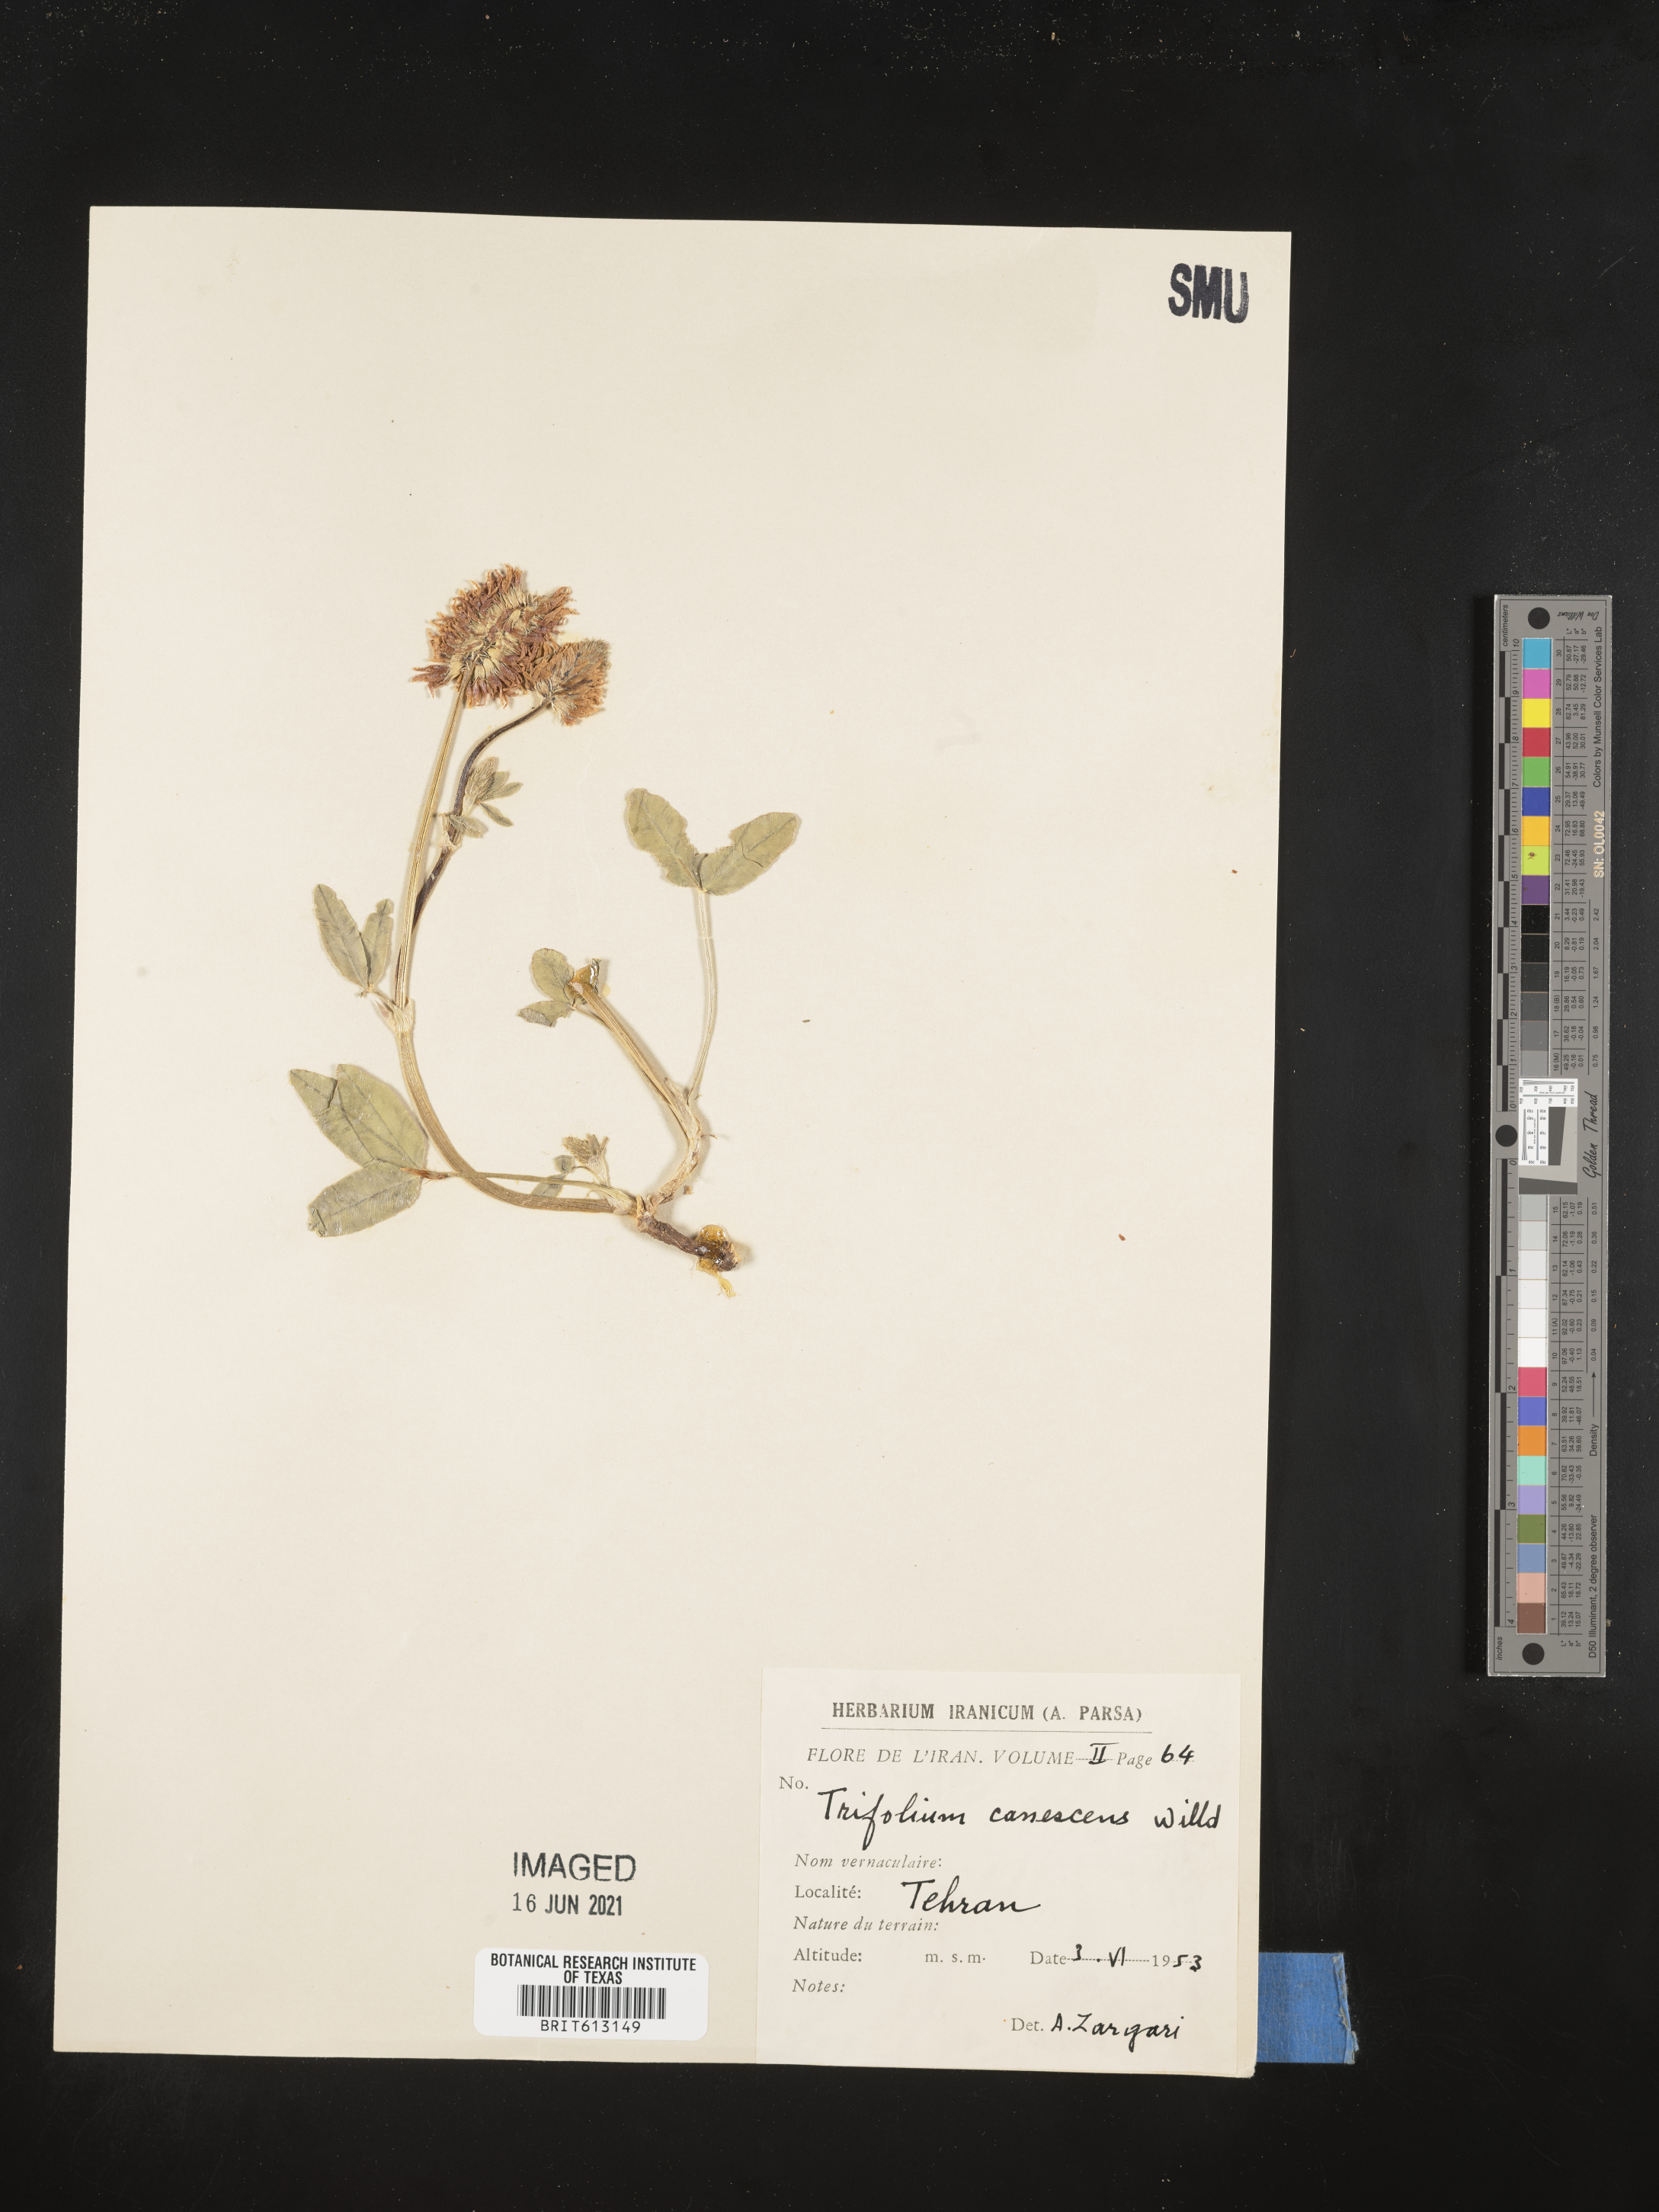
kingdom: Plantae
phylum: Tracheophyta
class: Magnoliopsida
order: Fabales
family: Fabaceae
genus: Trifolium
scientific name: Trifolium canescens
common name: Graying clover
